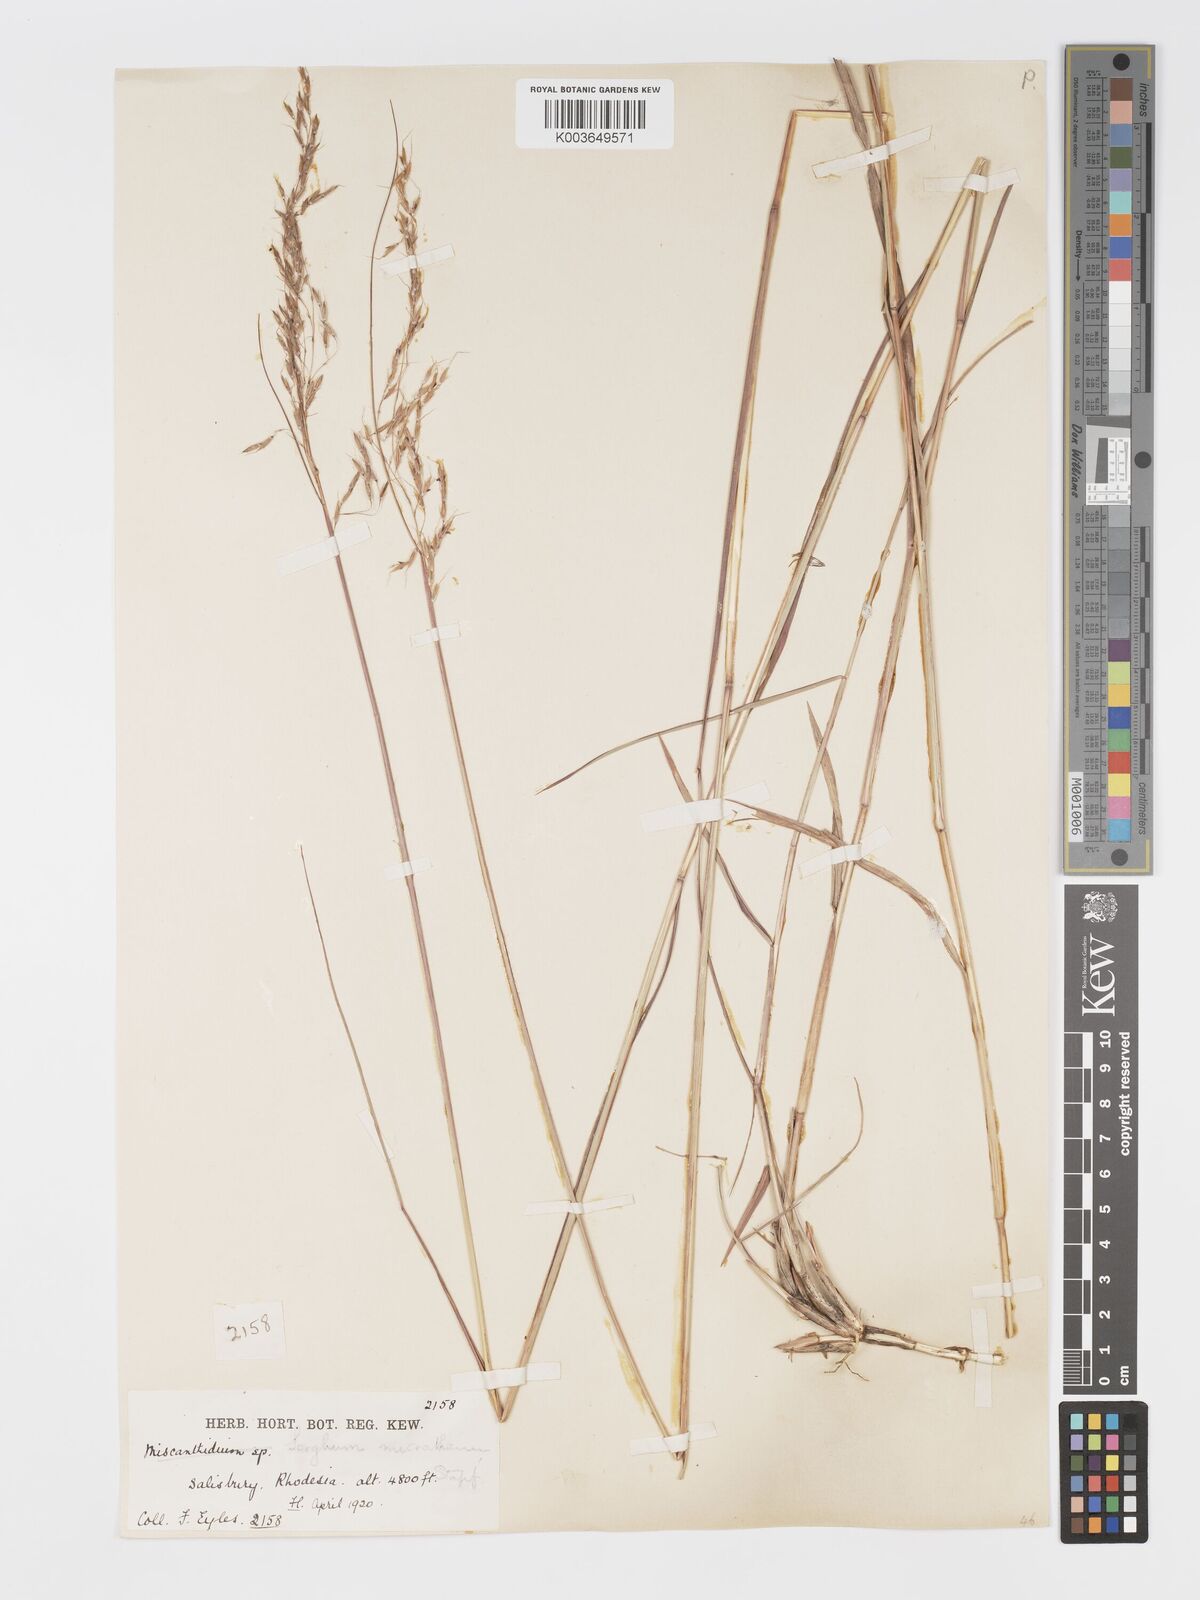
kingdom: Plantae
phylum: Tracheophyta
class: Liliopsida
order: Poales
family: Poaceae
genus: Sorghastrum
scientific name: Sorghastrum nudipes
